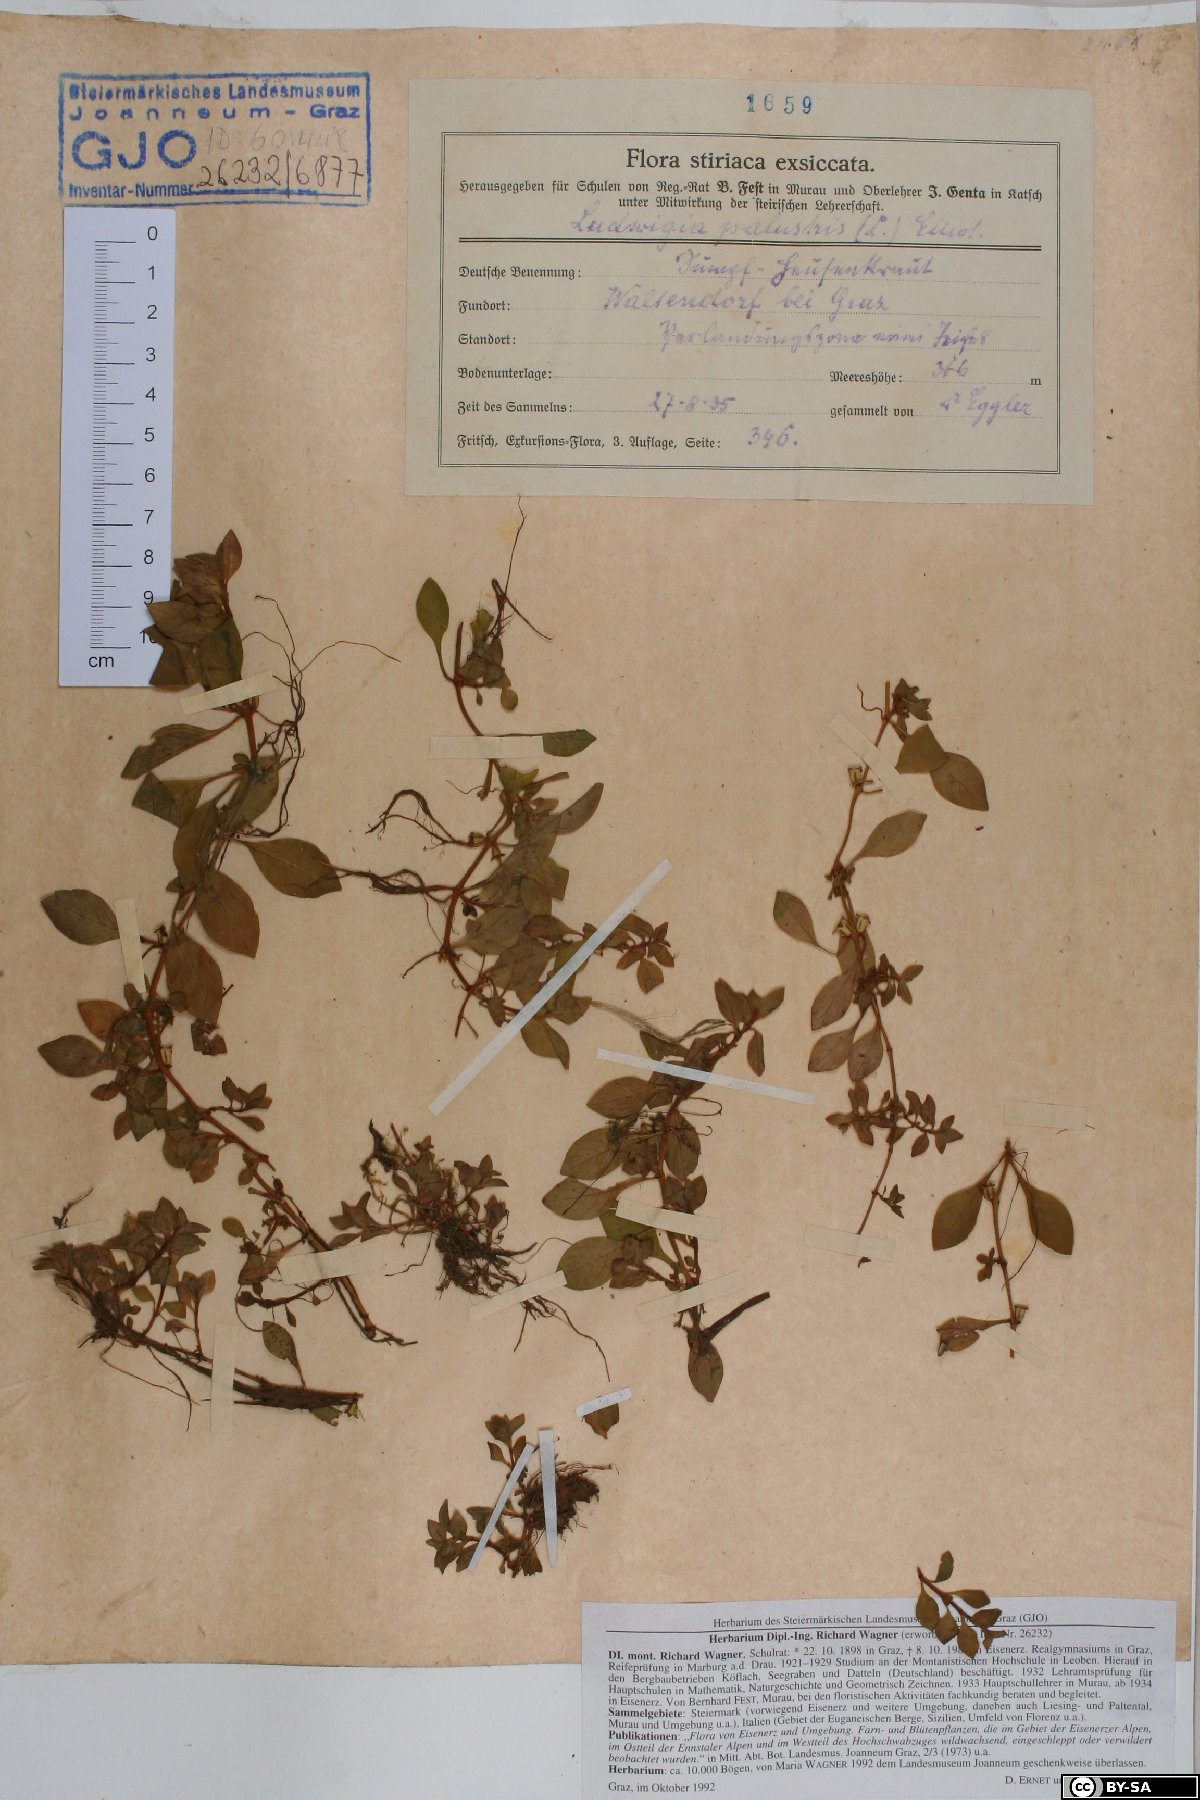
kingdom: Plantae
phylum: Tracheophyta
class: Magnoliopsida
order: Myrtales
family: Onagraceae
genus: Ludwigia
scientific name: Ludwigia palustris
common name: Hampshire-purslane
